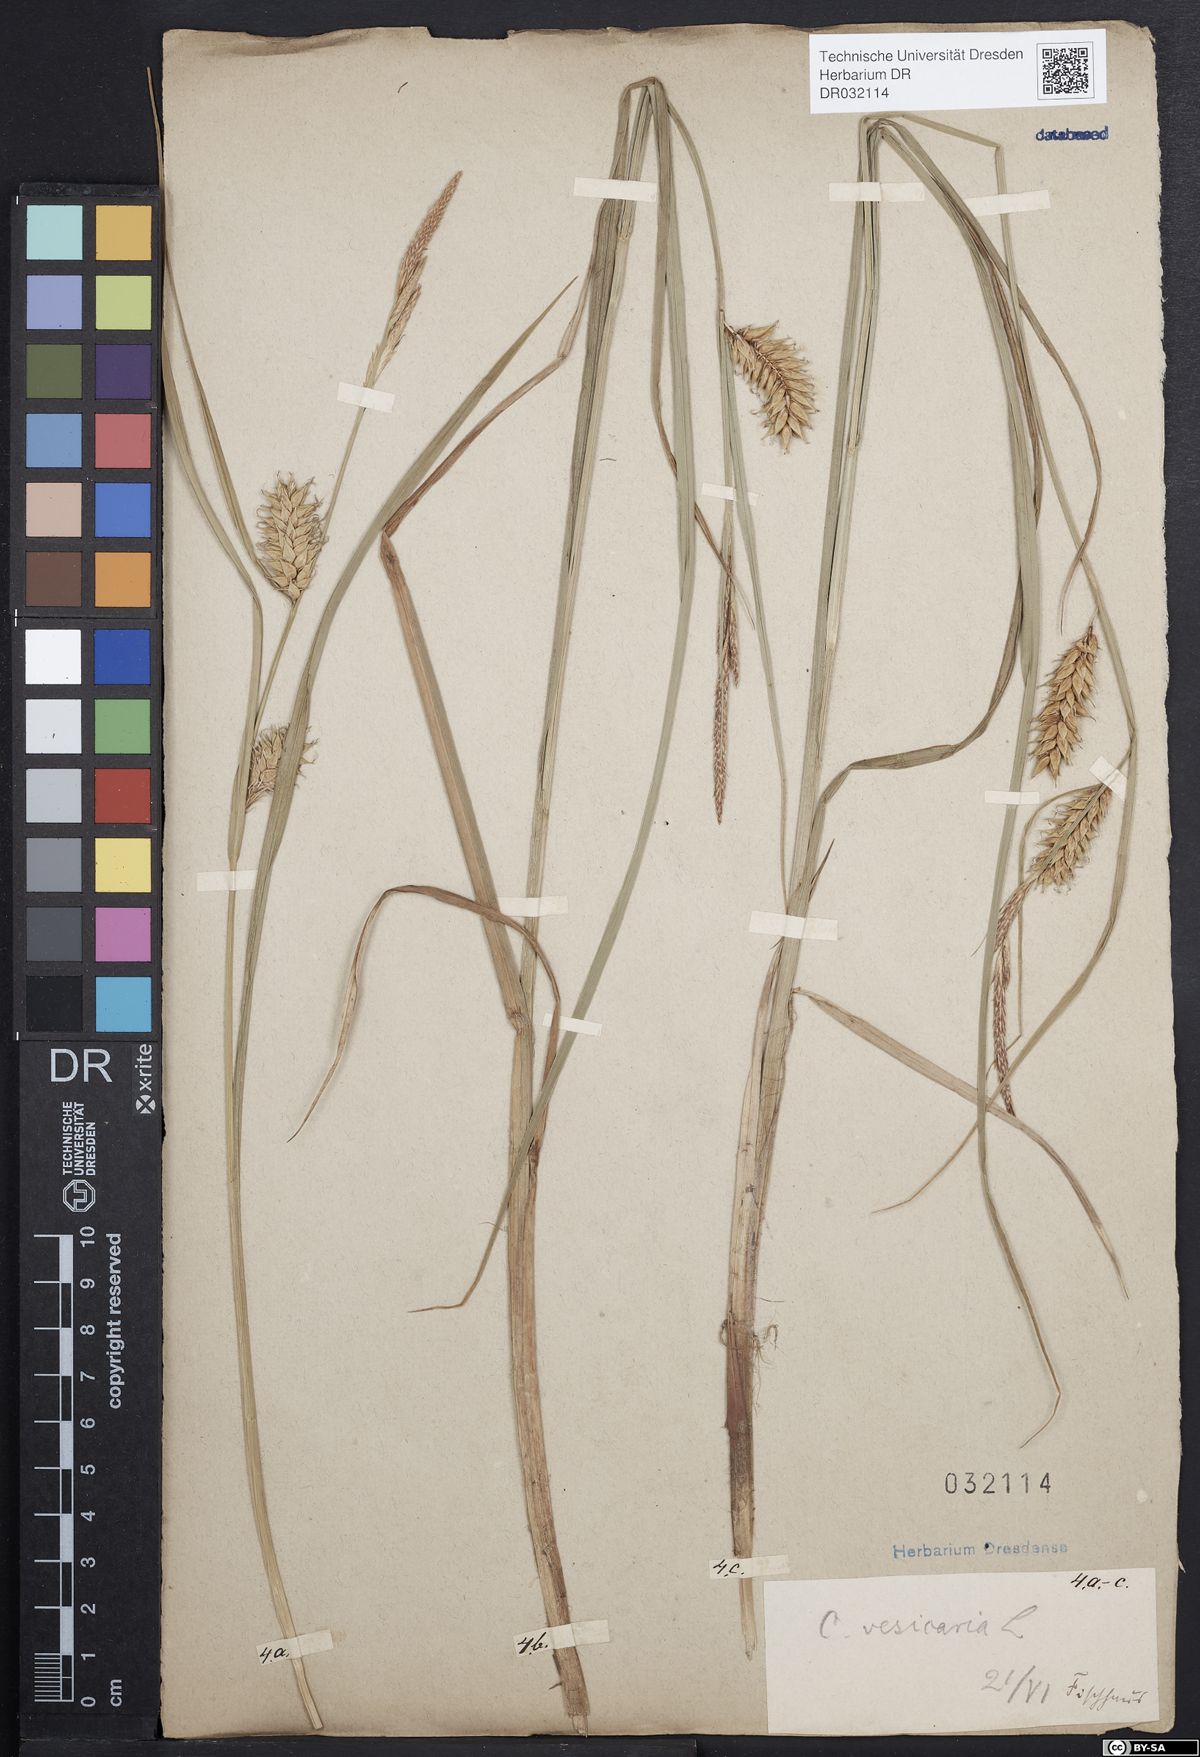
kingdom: Plantae
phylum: Tracheophyta
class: Liliopsida
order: Poales
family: Cyperaceae
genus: Carex
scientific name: Carex vesicaria
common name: Bladder-sedge
